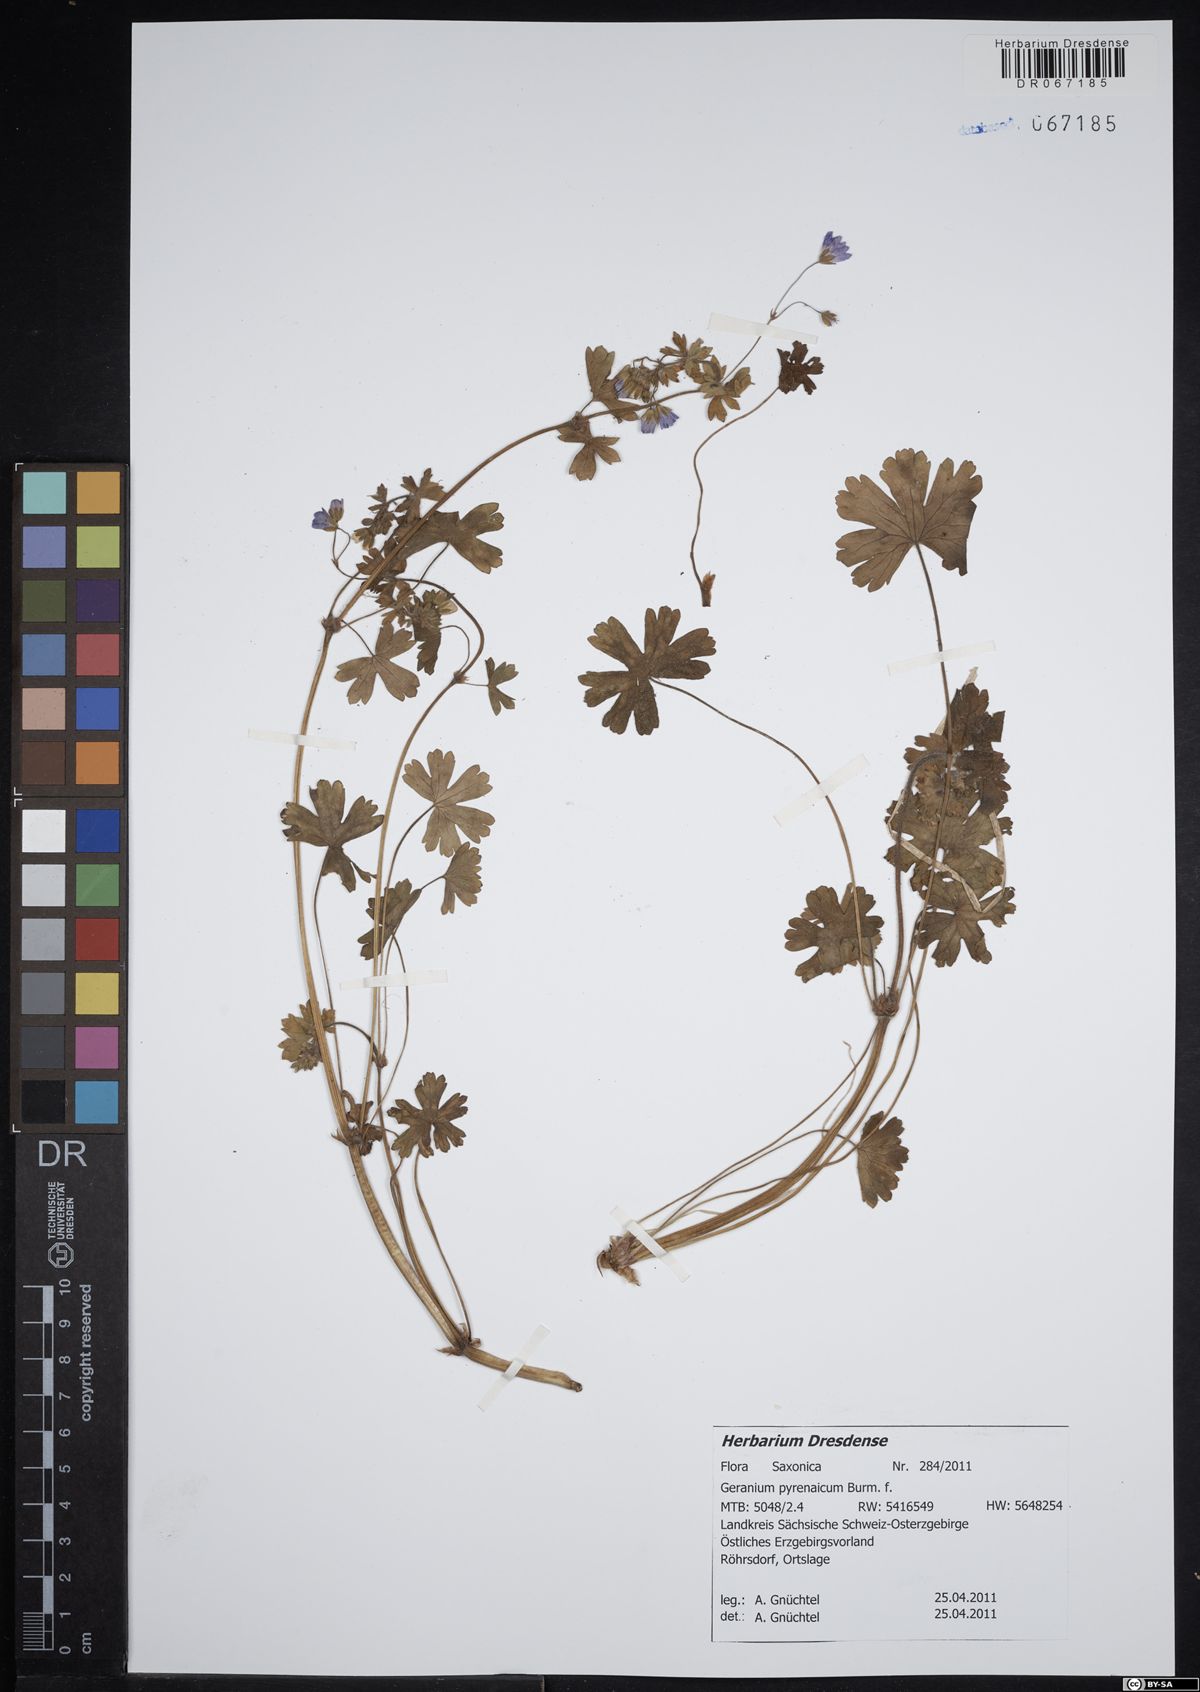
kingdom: Plantae
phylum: Tracheophyta
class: Magnoliopsida
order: Geraniales
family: Geraniaceae
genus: Geranium
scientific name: Geranium pyrenaicum
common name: Hedgerow crane's-bill
